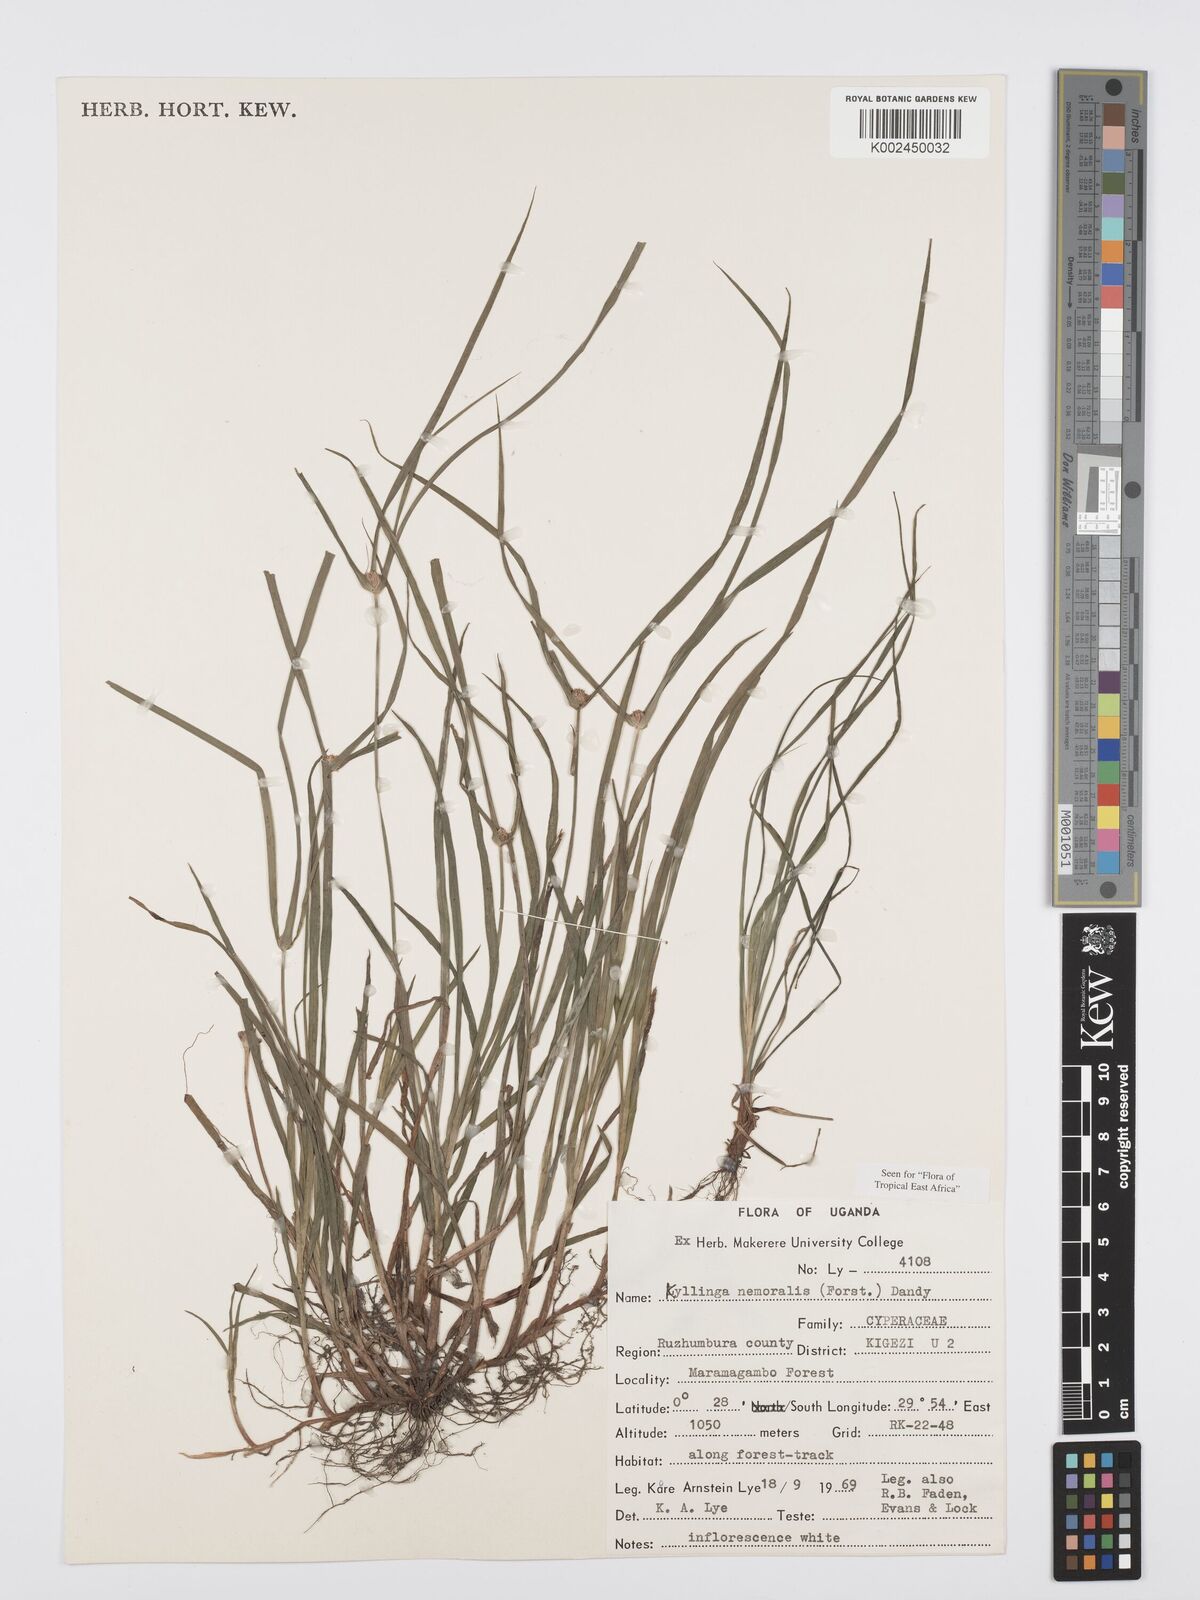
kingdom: Plantae
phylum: Tracheophyta
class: Liliopsida
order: Poales
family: Cyperaceae
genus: Cyperus
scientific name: Cyperus nemoralis
